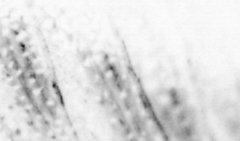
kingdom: Animalia
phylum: Chordata
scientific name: Chordata
